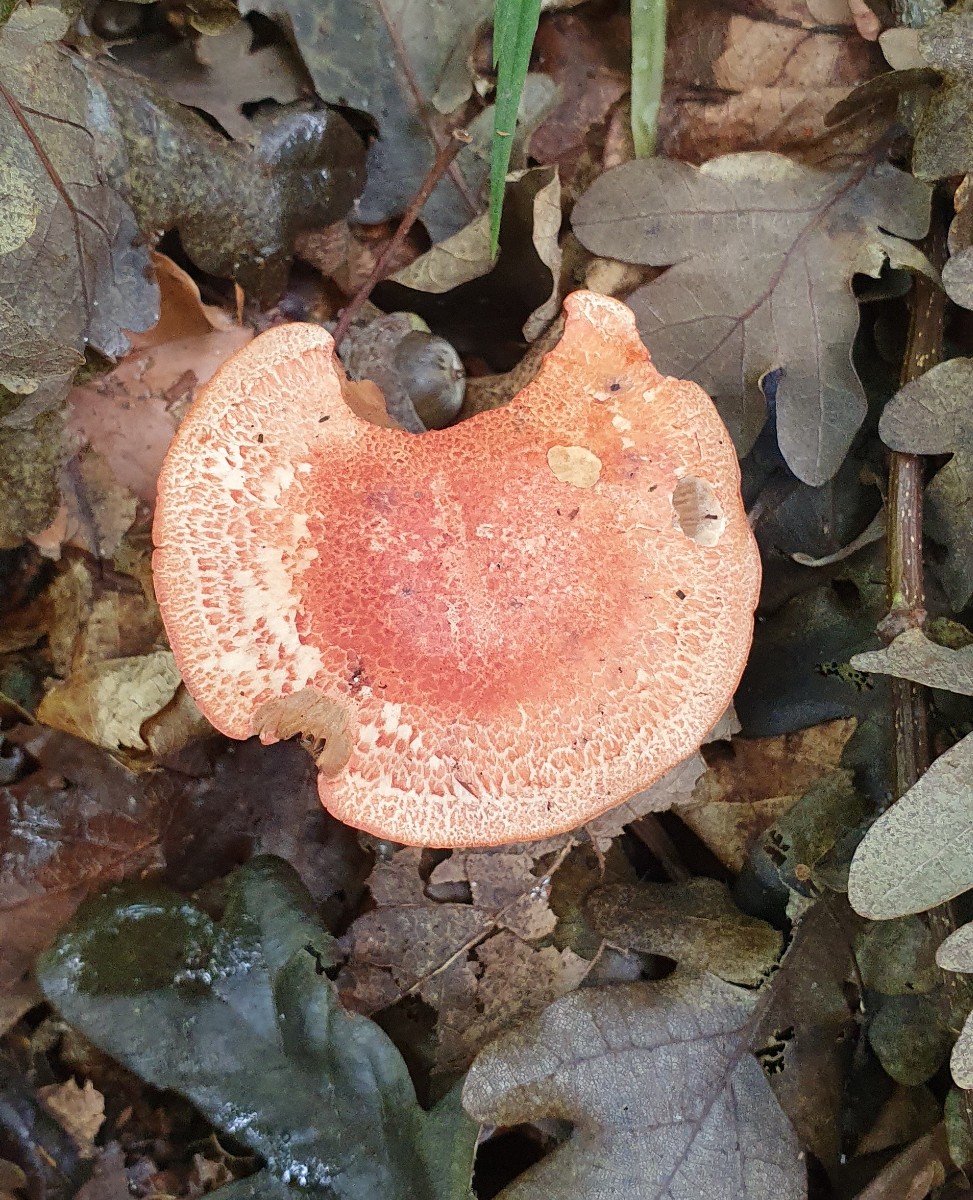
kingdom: Fungi
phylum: Basidiomycota
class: Agaricomycetes
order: Agaricales
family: Cortinariaceae
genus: Cortinarius
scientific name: Cortinarius bolaris
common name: cinnoberskællet slørhat
